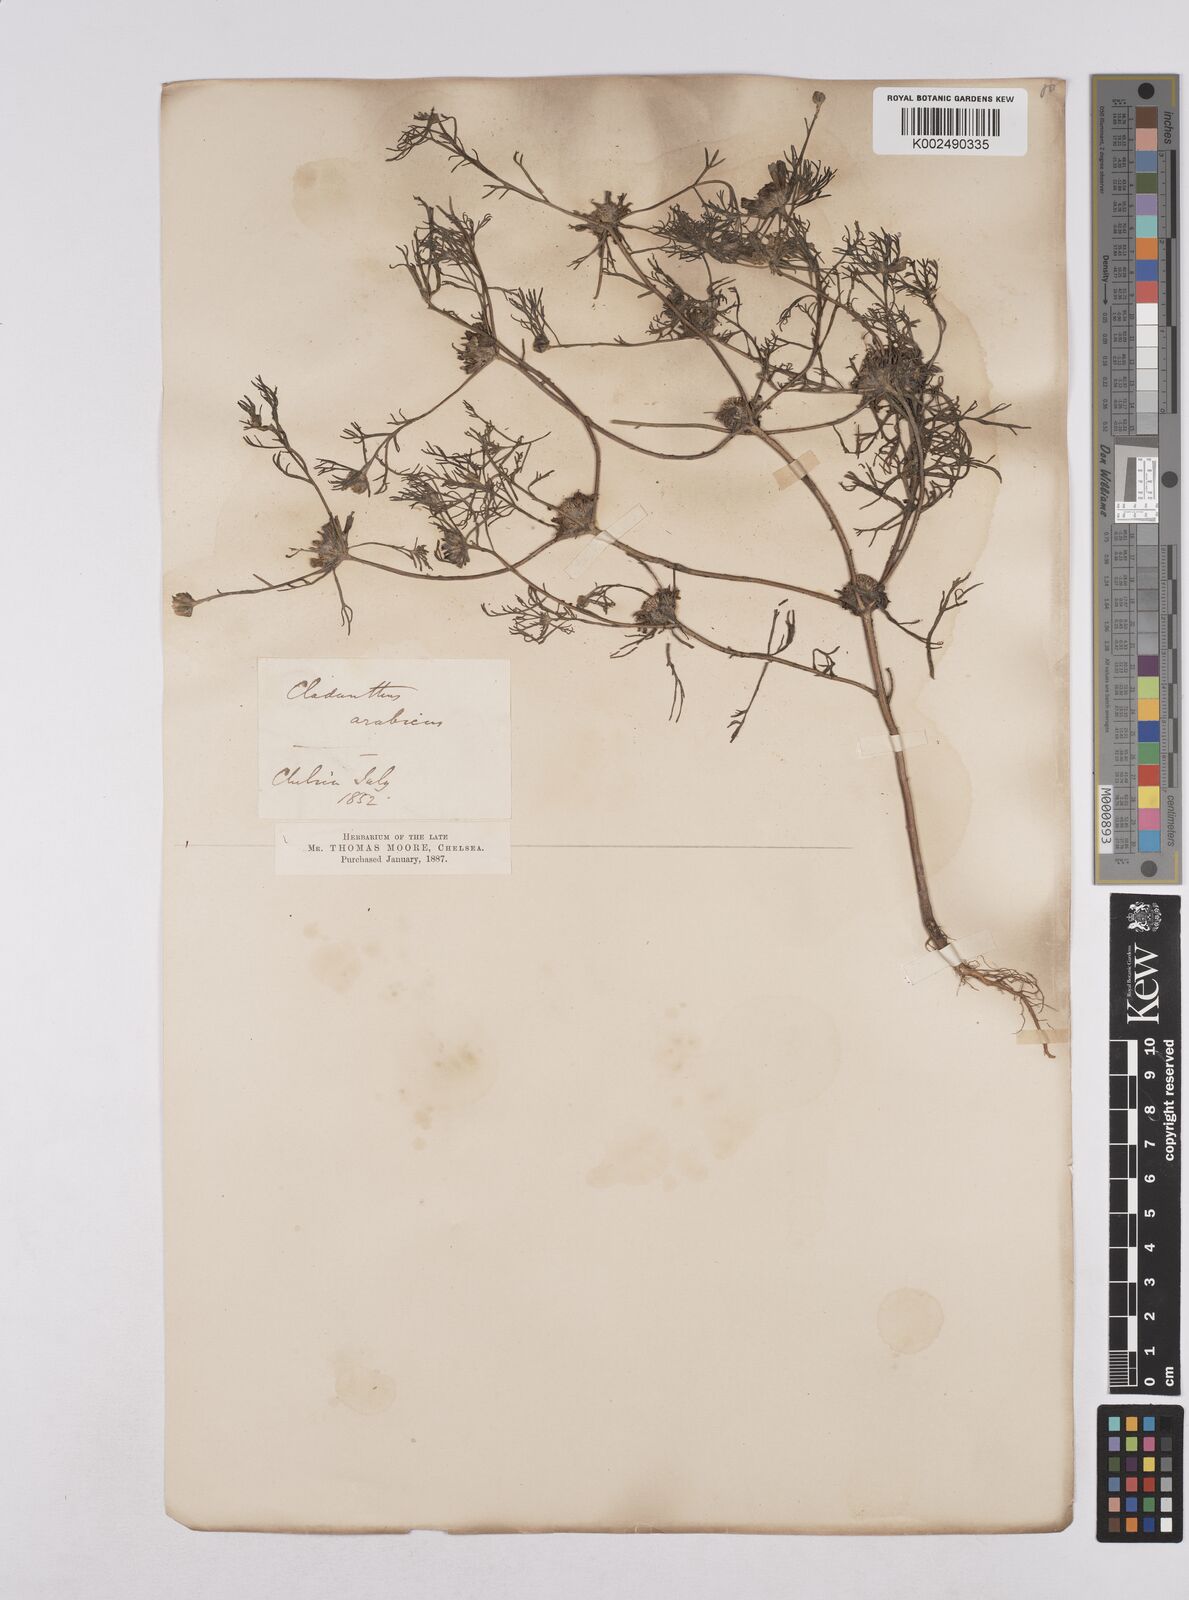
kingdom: Plantae
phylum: Tracheophyta
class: Magnoliopsida
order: Asterales
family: Asteraceae
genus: Cladanthus
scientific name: Cladanthus arabicus
